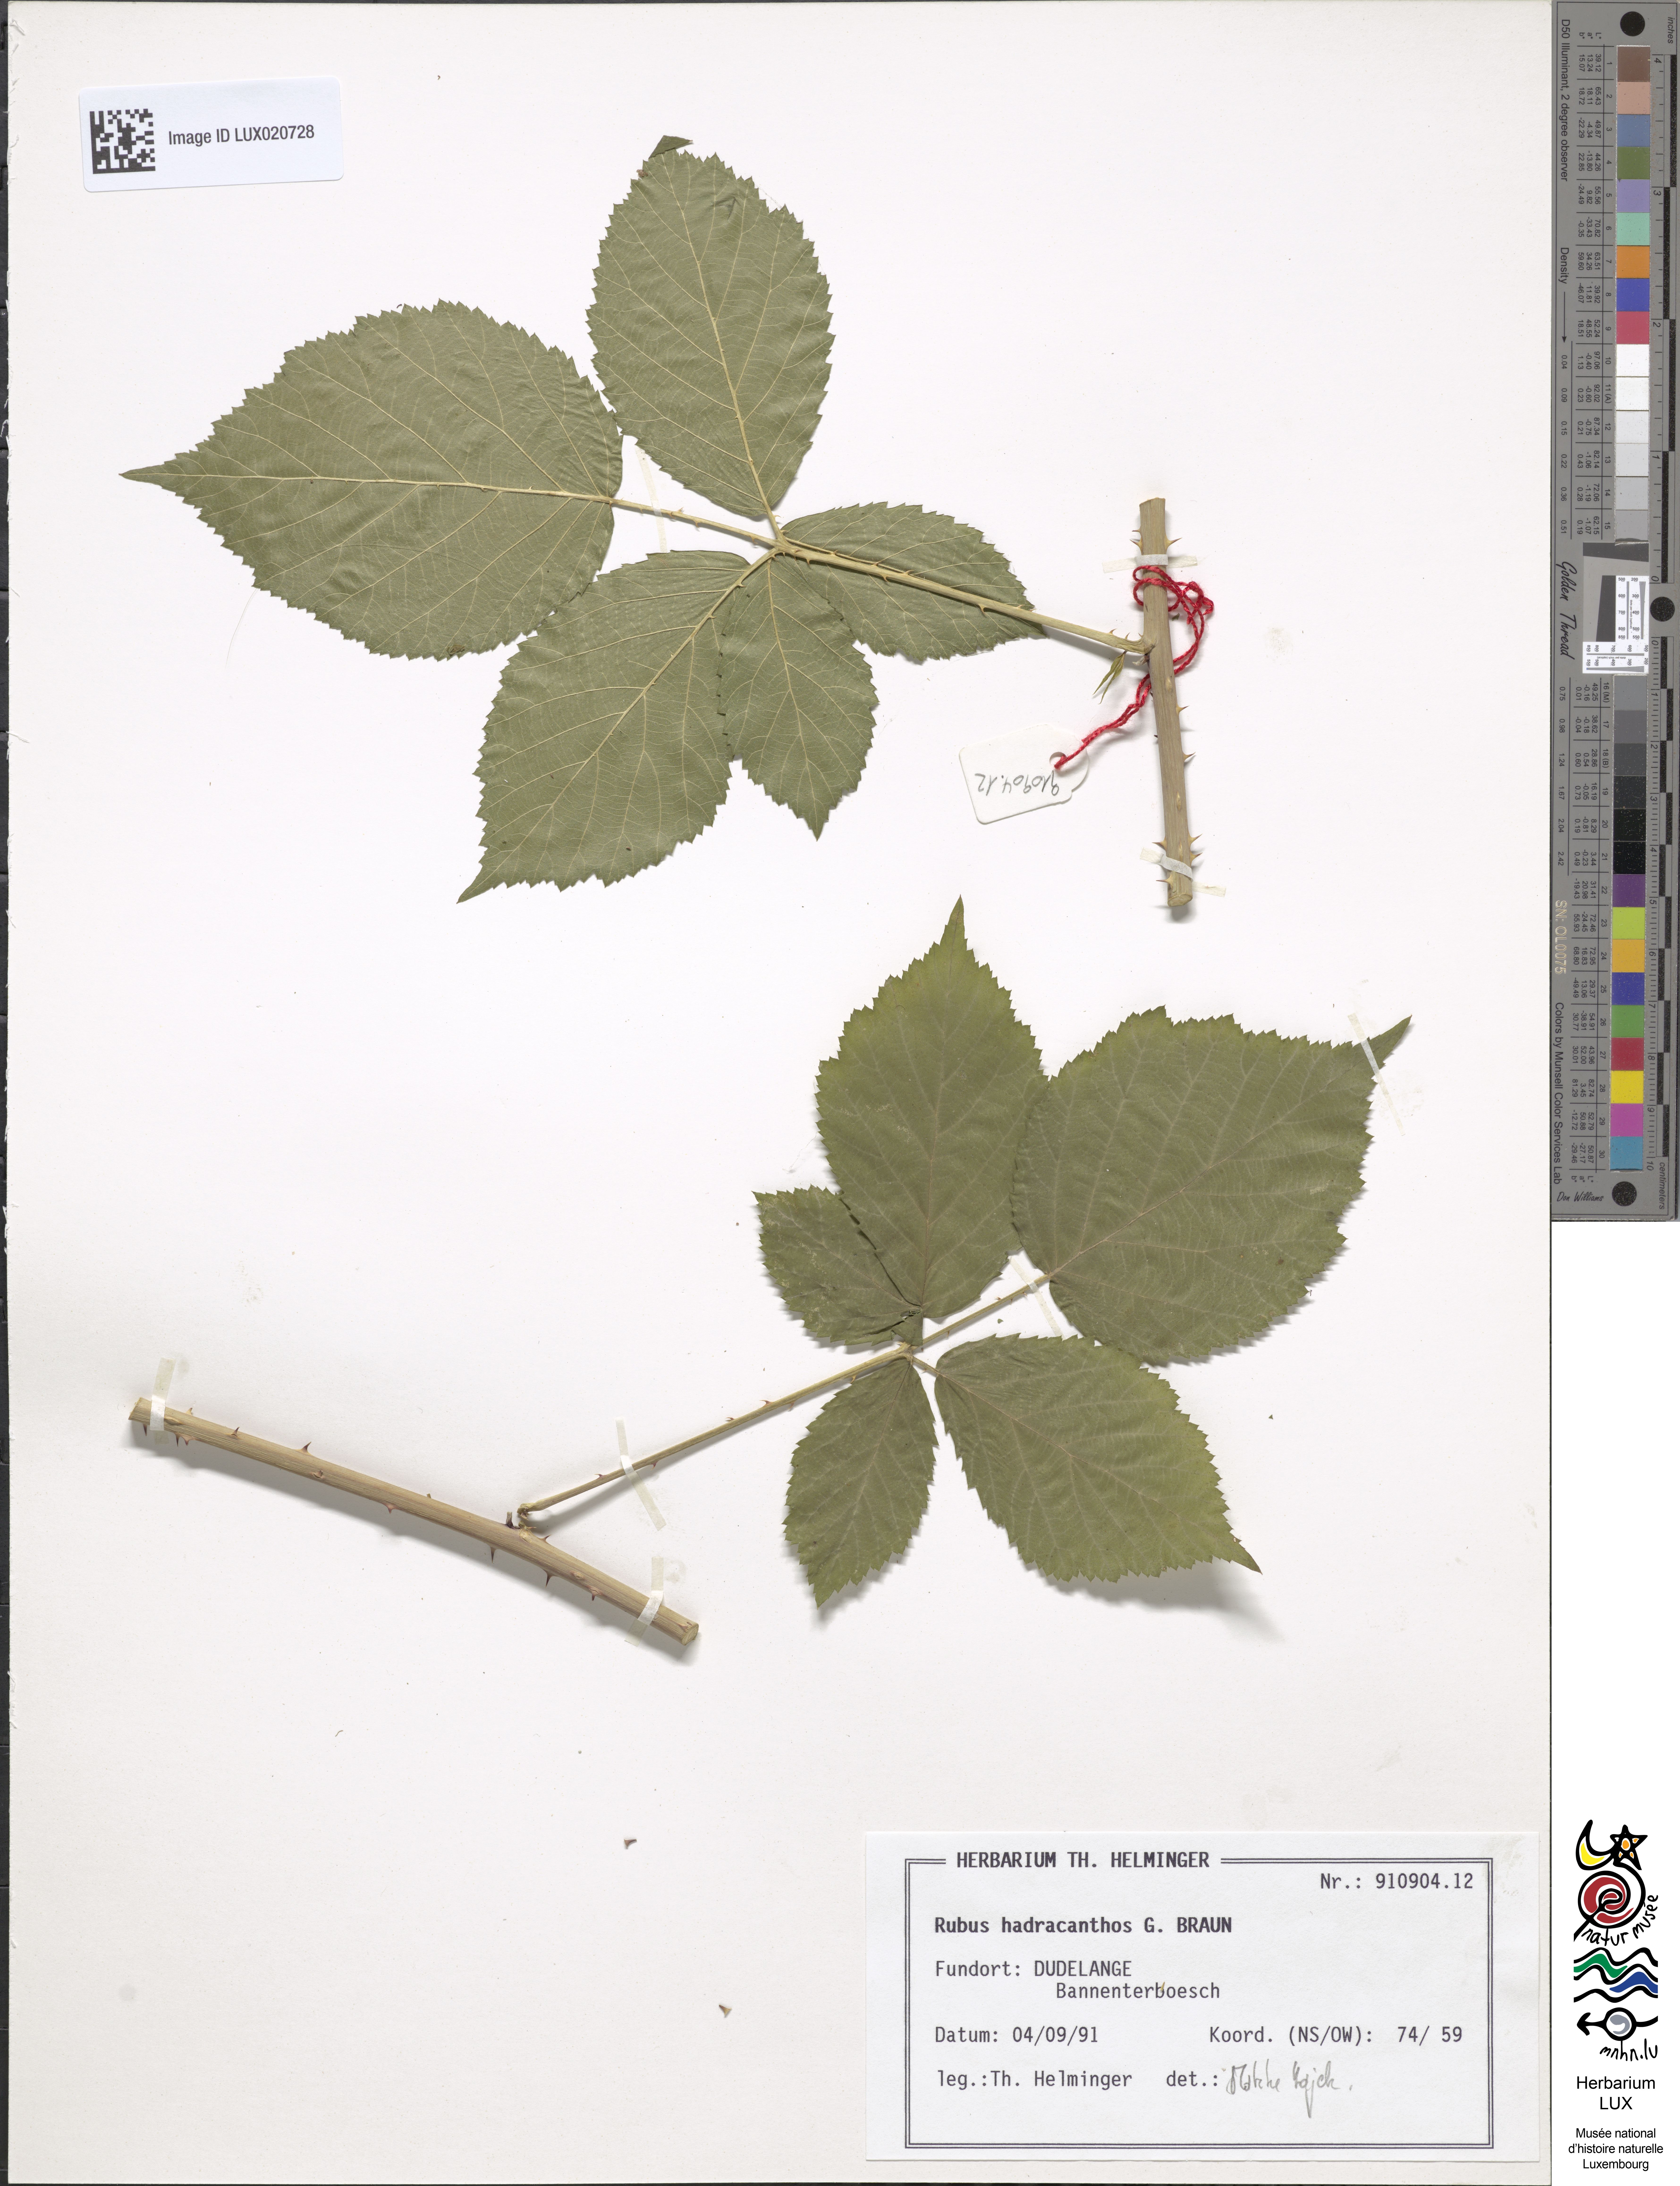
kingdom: Plantae
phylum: Tracheophyta
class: Magnoliopsida
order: Rosales
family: Rosaceae
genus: Rubus
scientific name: Rubus hadracanthos
